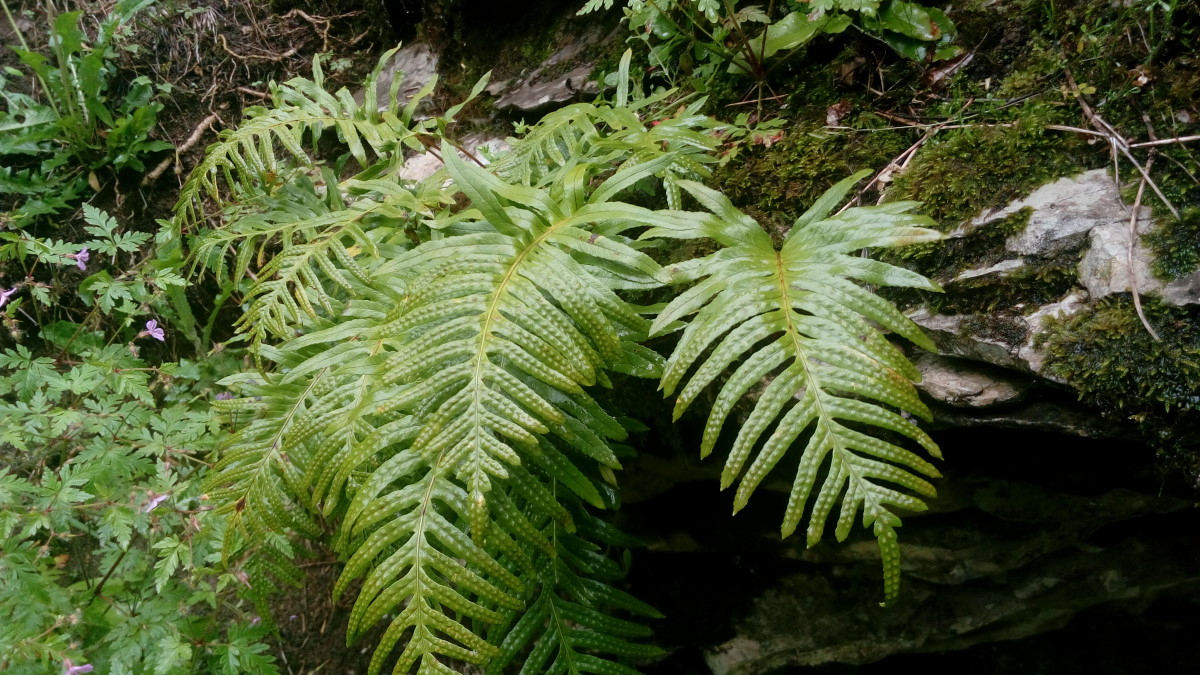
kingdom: Plantae
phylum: Tracheophyta
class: Polypodiopsida
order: Polypodiales
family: Polypodiaceae
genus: Polypodium
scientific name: Polypodium vulgare
